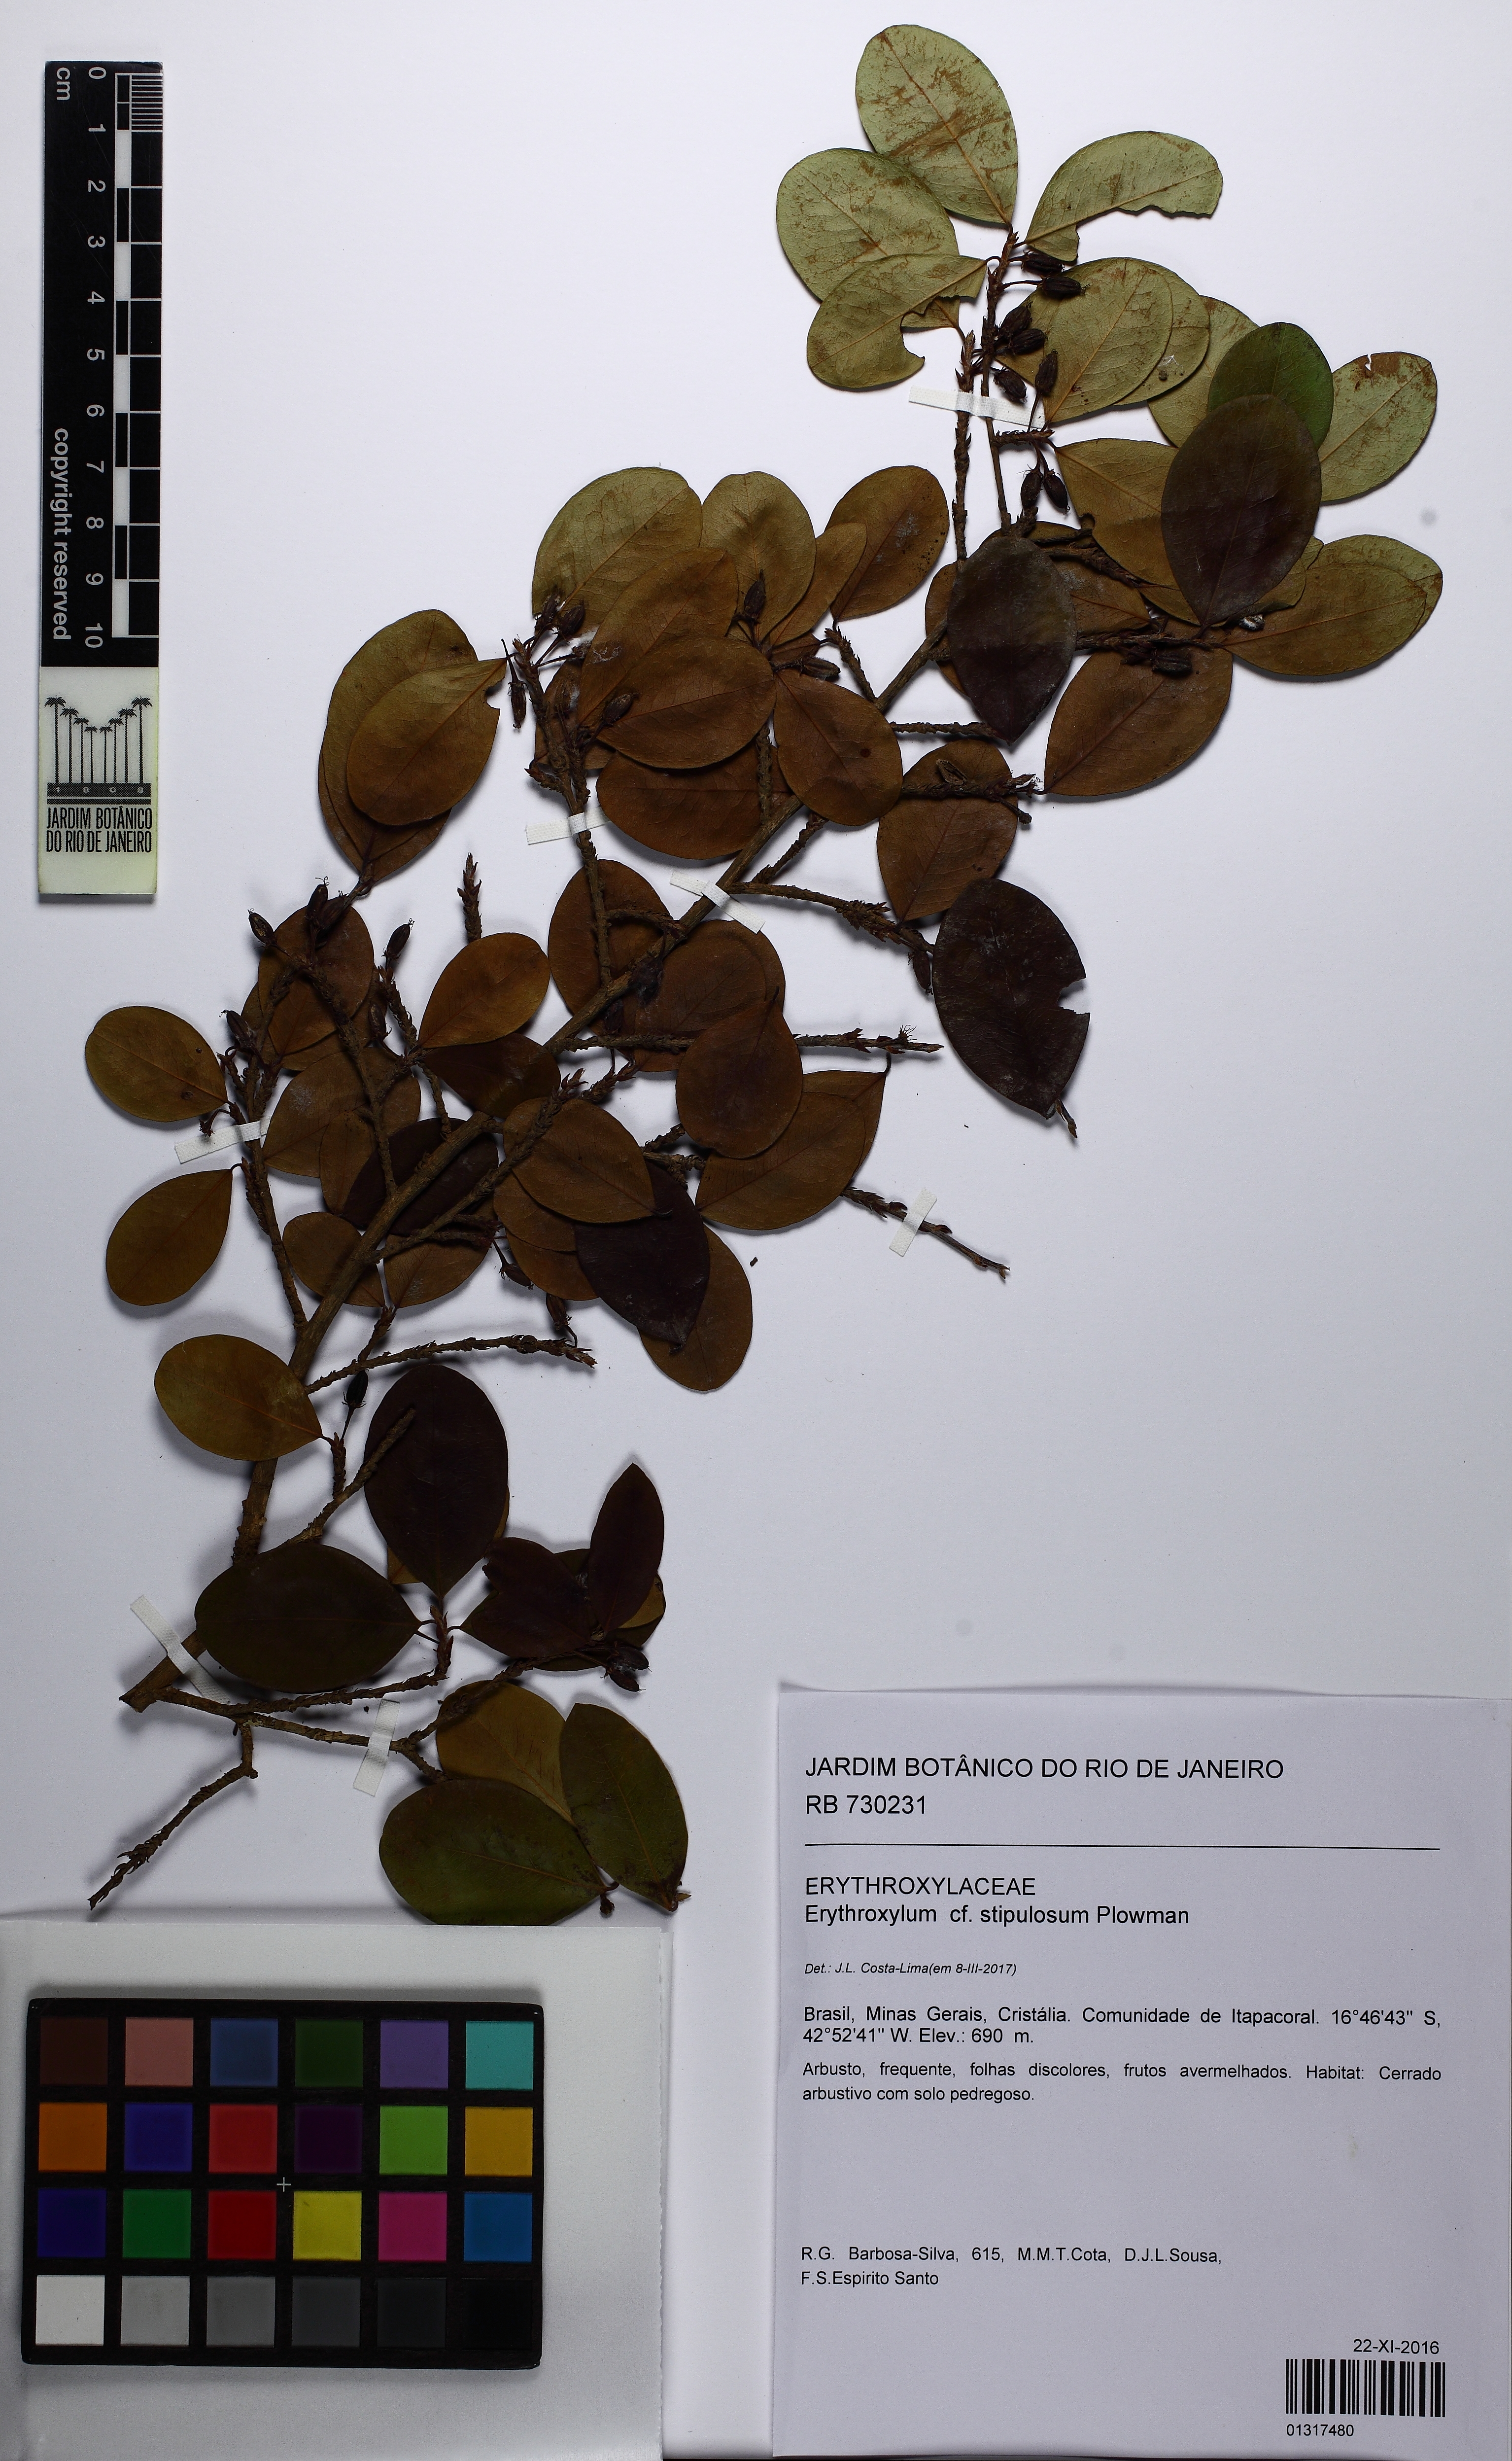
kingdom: Plantae
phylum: Tracheophyta
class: Magnoliopsida
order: Malpighiales
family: Erythroxylaceae
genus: Erythroxylum
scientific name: Erythroxylum stipulosum
